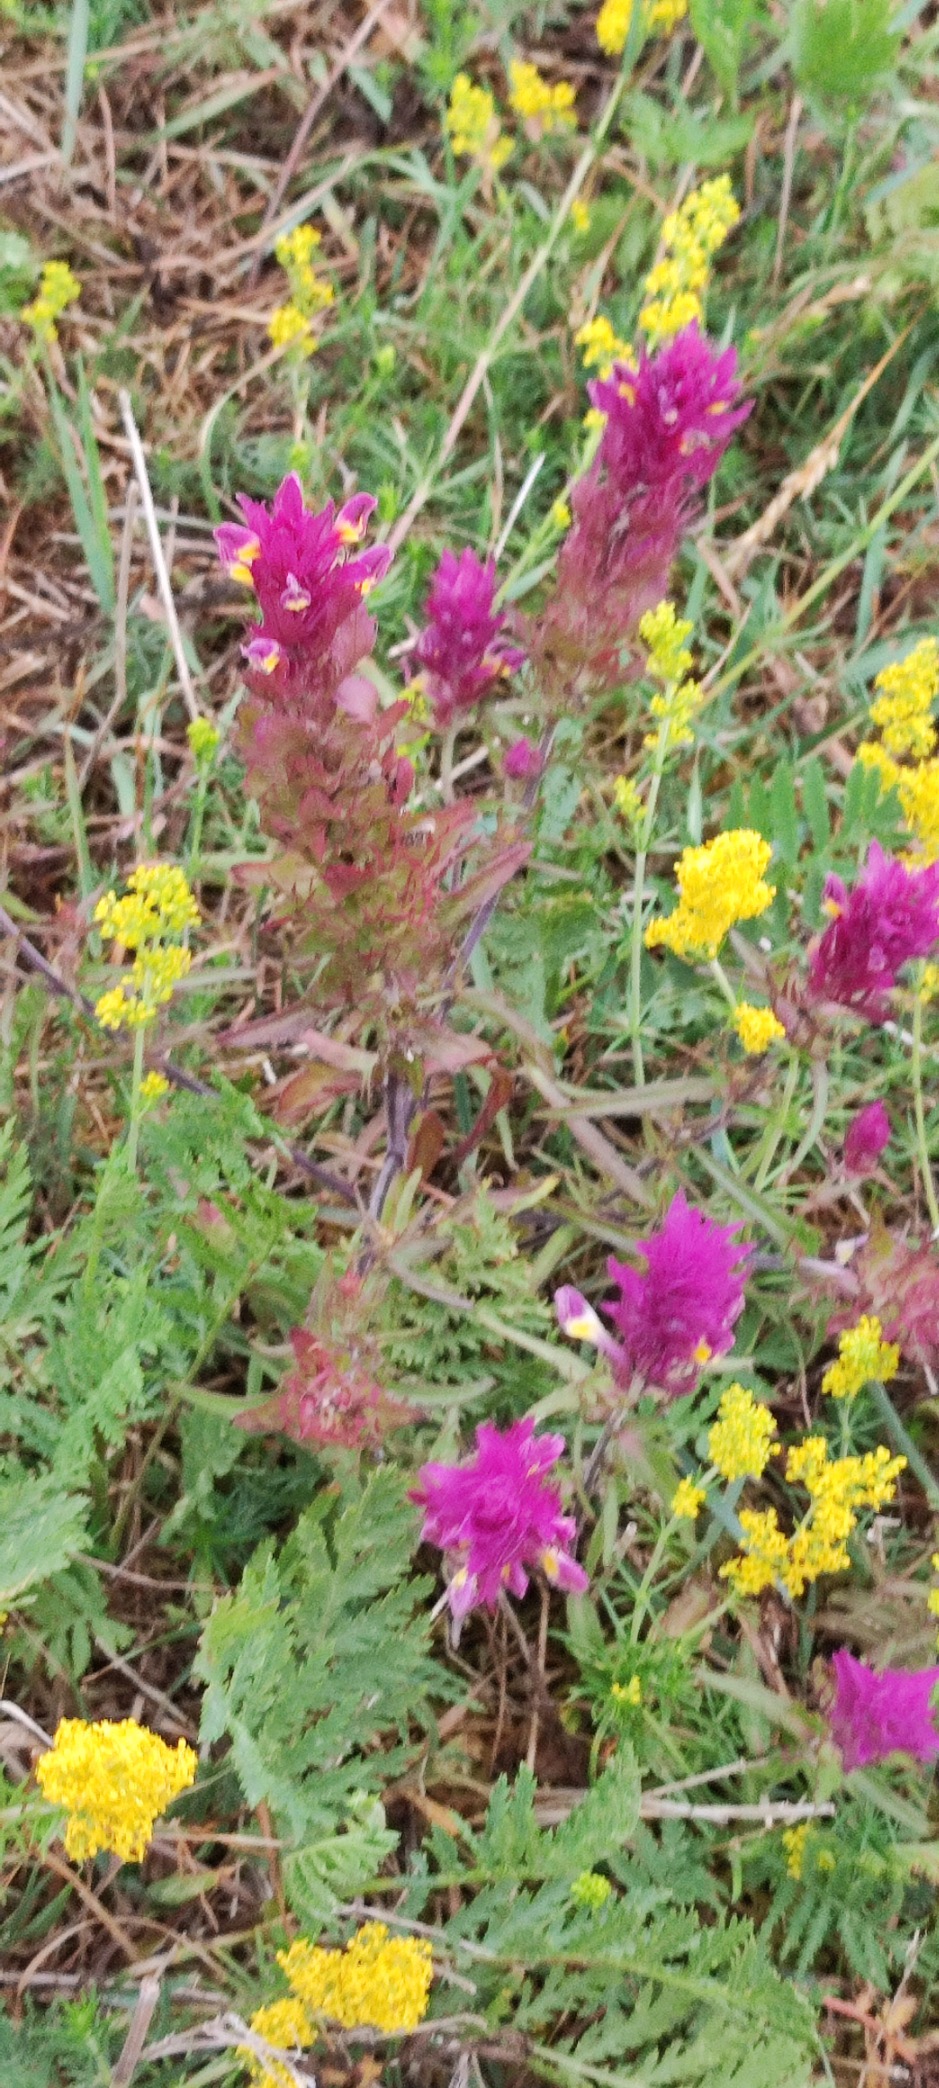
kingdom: Plantae
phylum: Tracheophyta
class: Magnoliopsida
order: Lamiales
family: Orobanchaceae
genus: Melampyrum
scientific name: Melampyrum arvense
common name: Ager-kohvede
